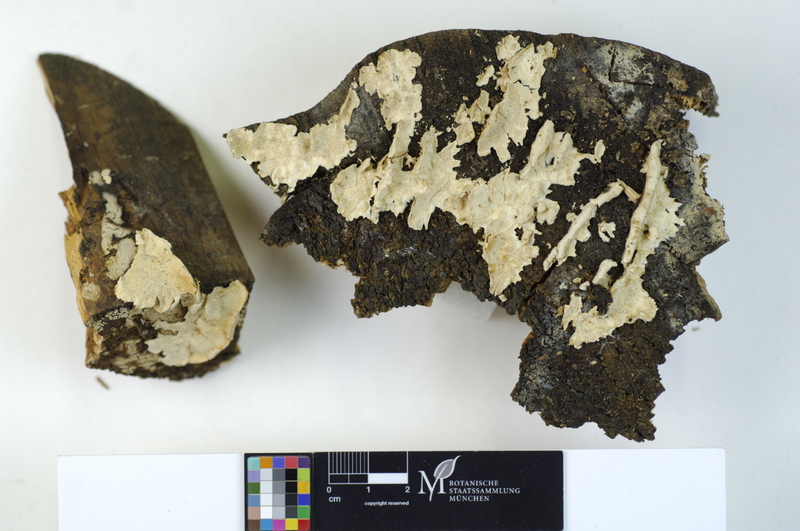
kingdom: Plantae
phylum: Tracheophyta
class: Pinopsida
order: Pinales
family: Pinaceae
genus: Picea
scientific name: Picea
